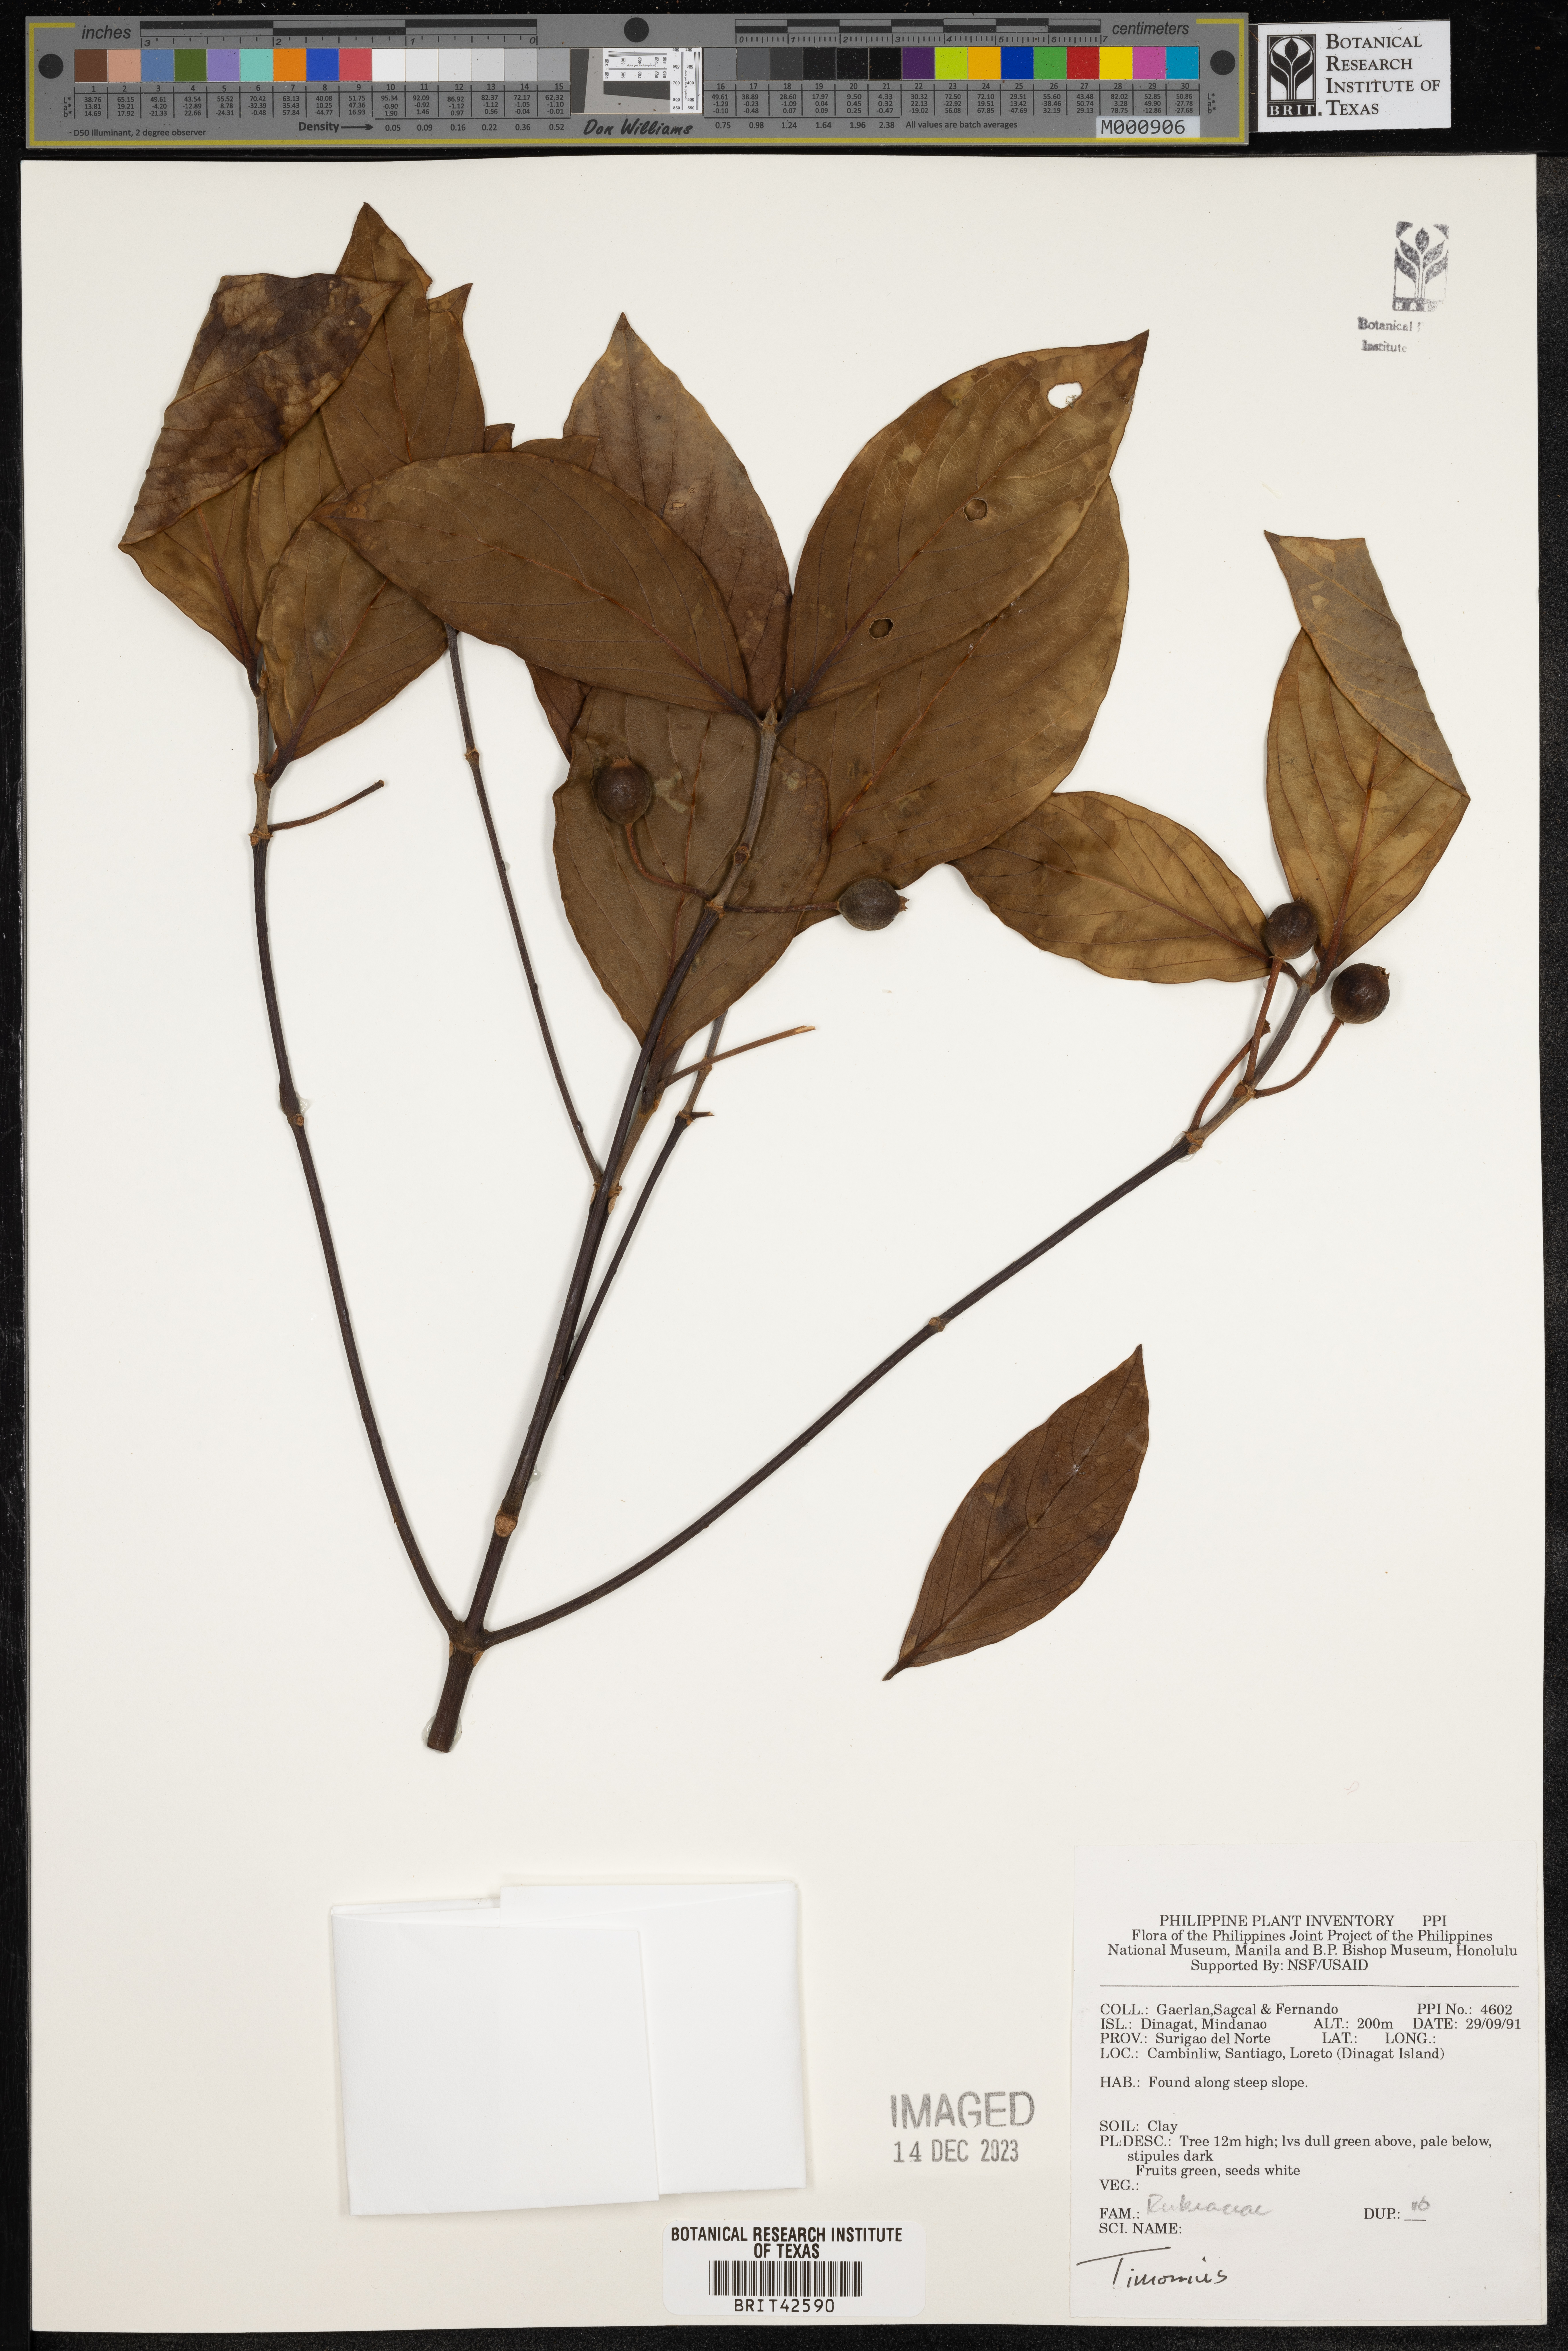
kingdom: Plantae
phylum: Tracheophyta
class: Magnoliopsida
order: Gentianales
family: Rubiaceae
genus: Timonius
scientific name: Timonius
